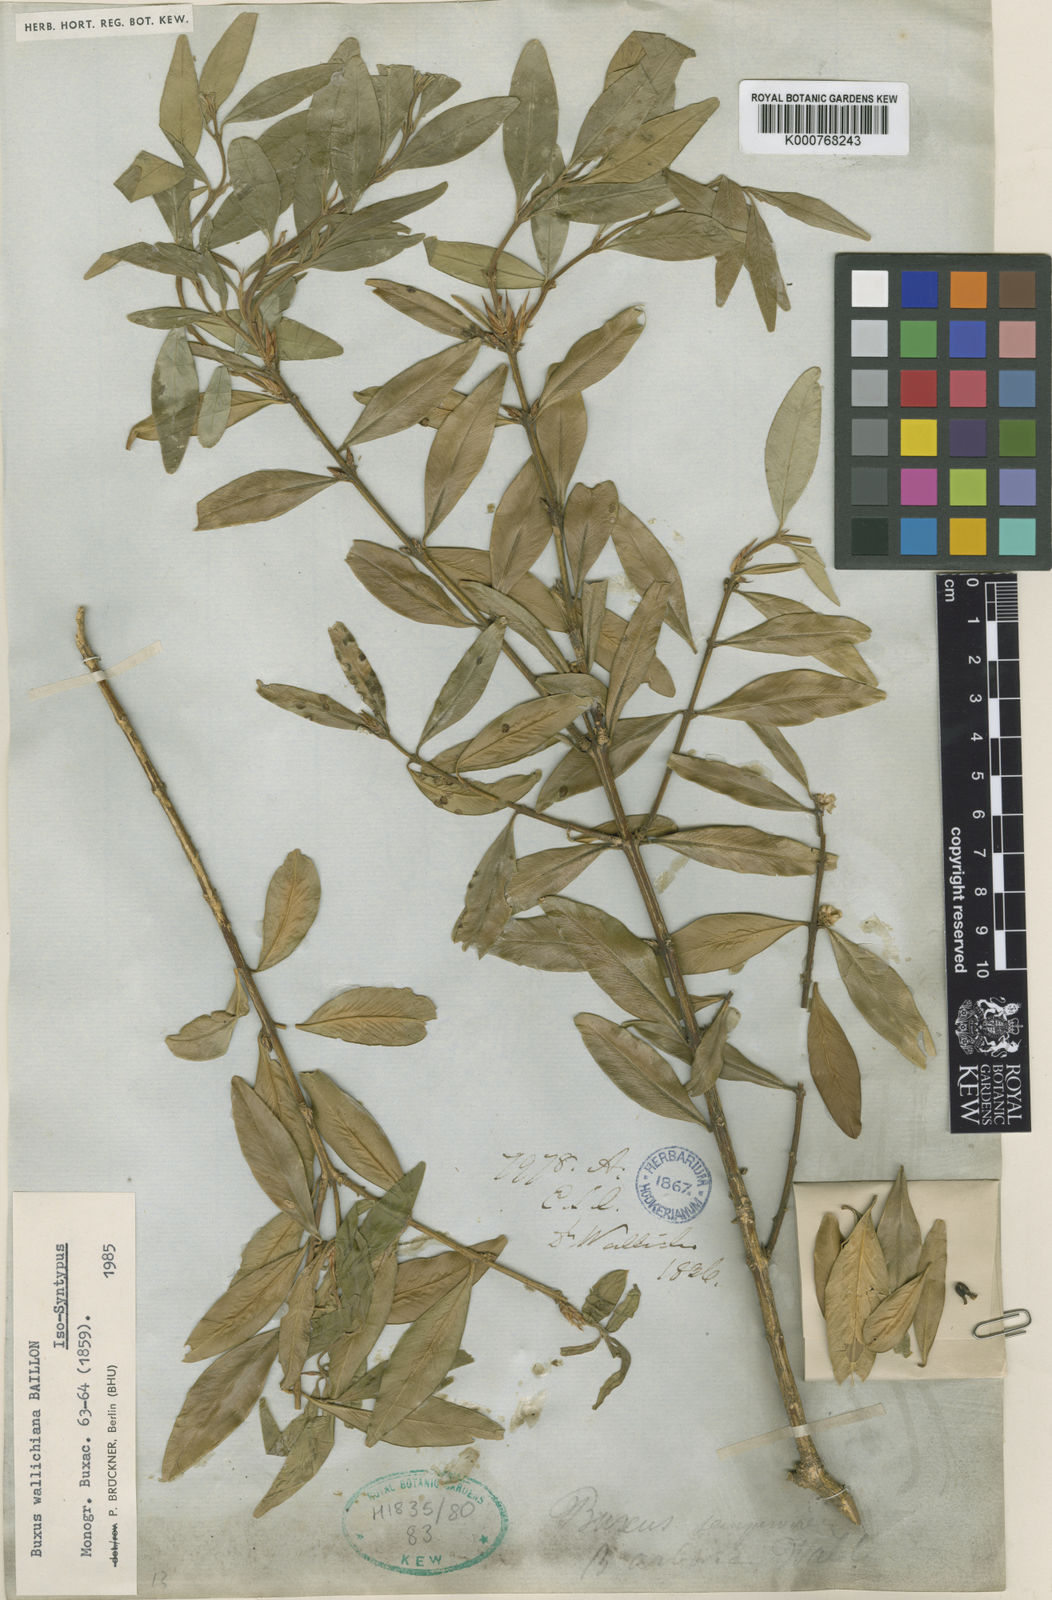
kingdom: Plantae
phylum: Tracheophyta
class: Magnoliopsida
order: Buxales
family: Buxaceae
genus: Buxus
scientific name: Buxus wallichiana
